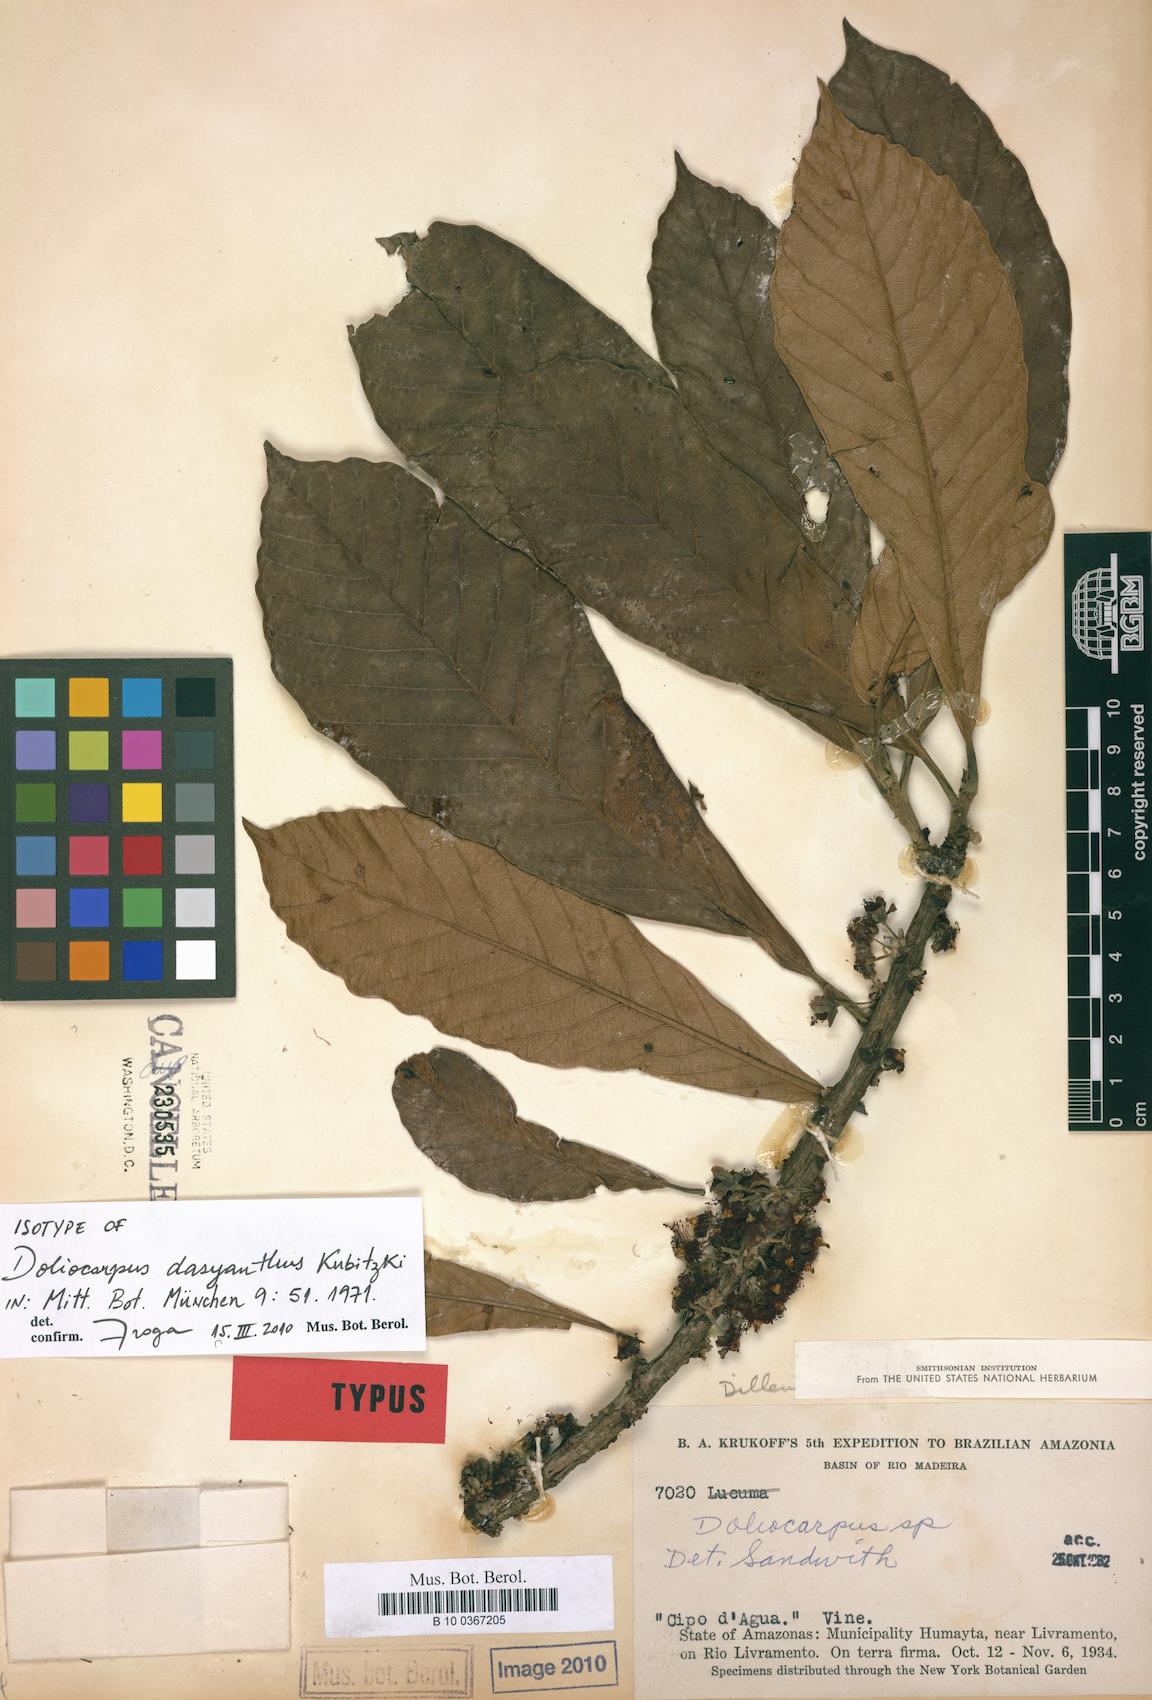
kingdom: Plantae
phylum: Tracheophyta
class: Magnoliopsida
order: Dilleniales
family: Dilleniaceae
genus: Doliocarpus
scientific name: Doliocarpus dasyanthus
